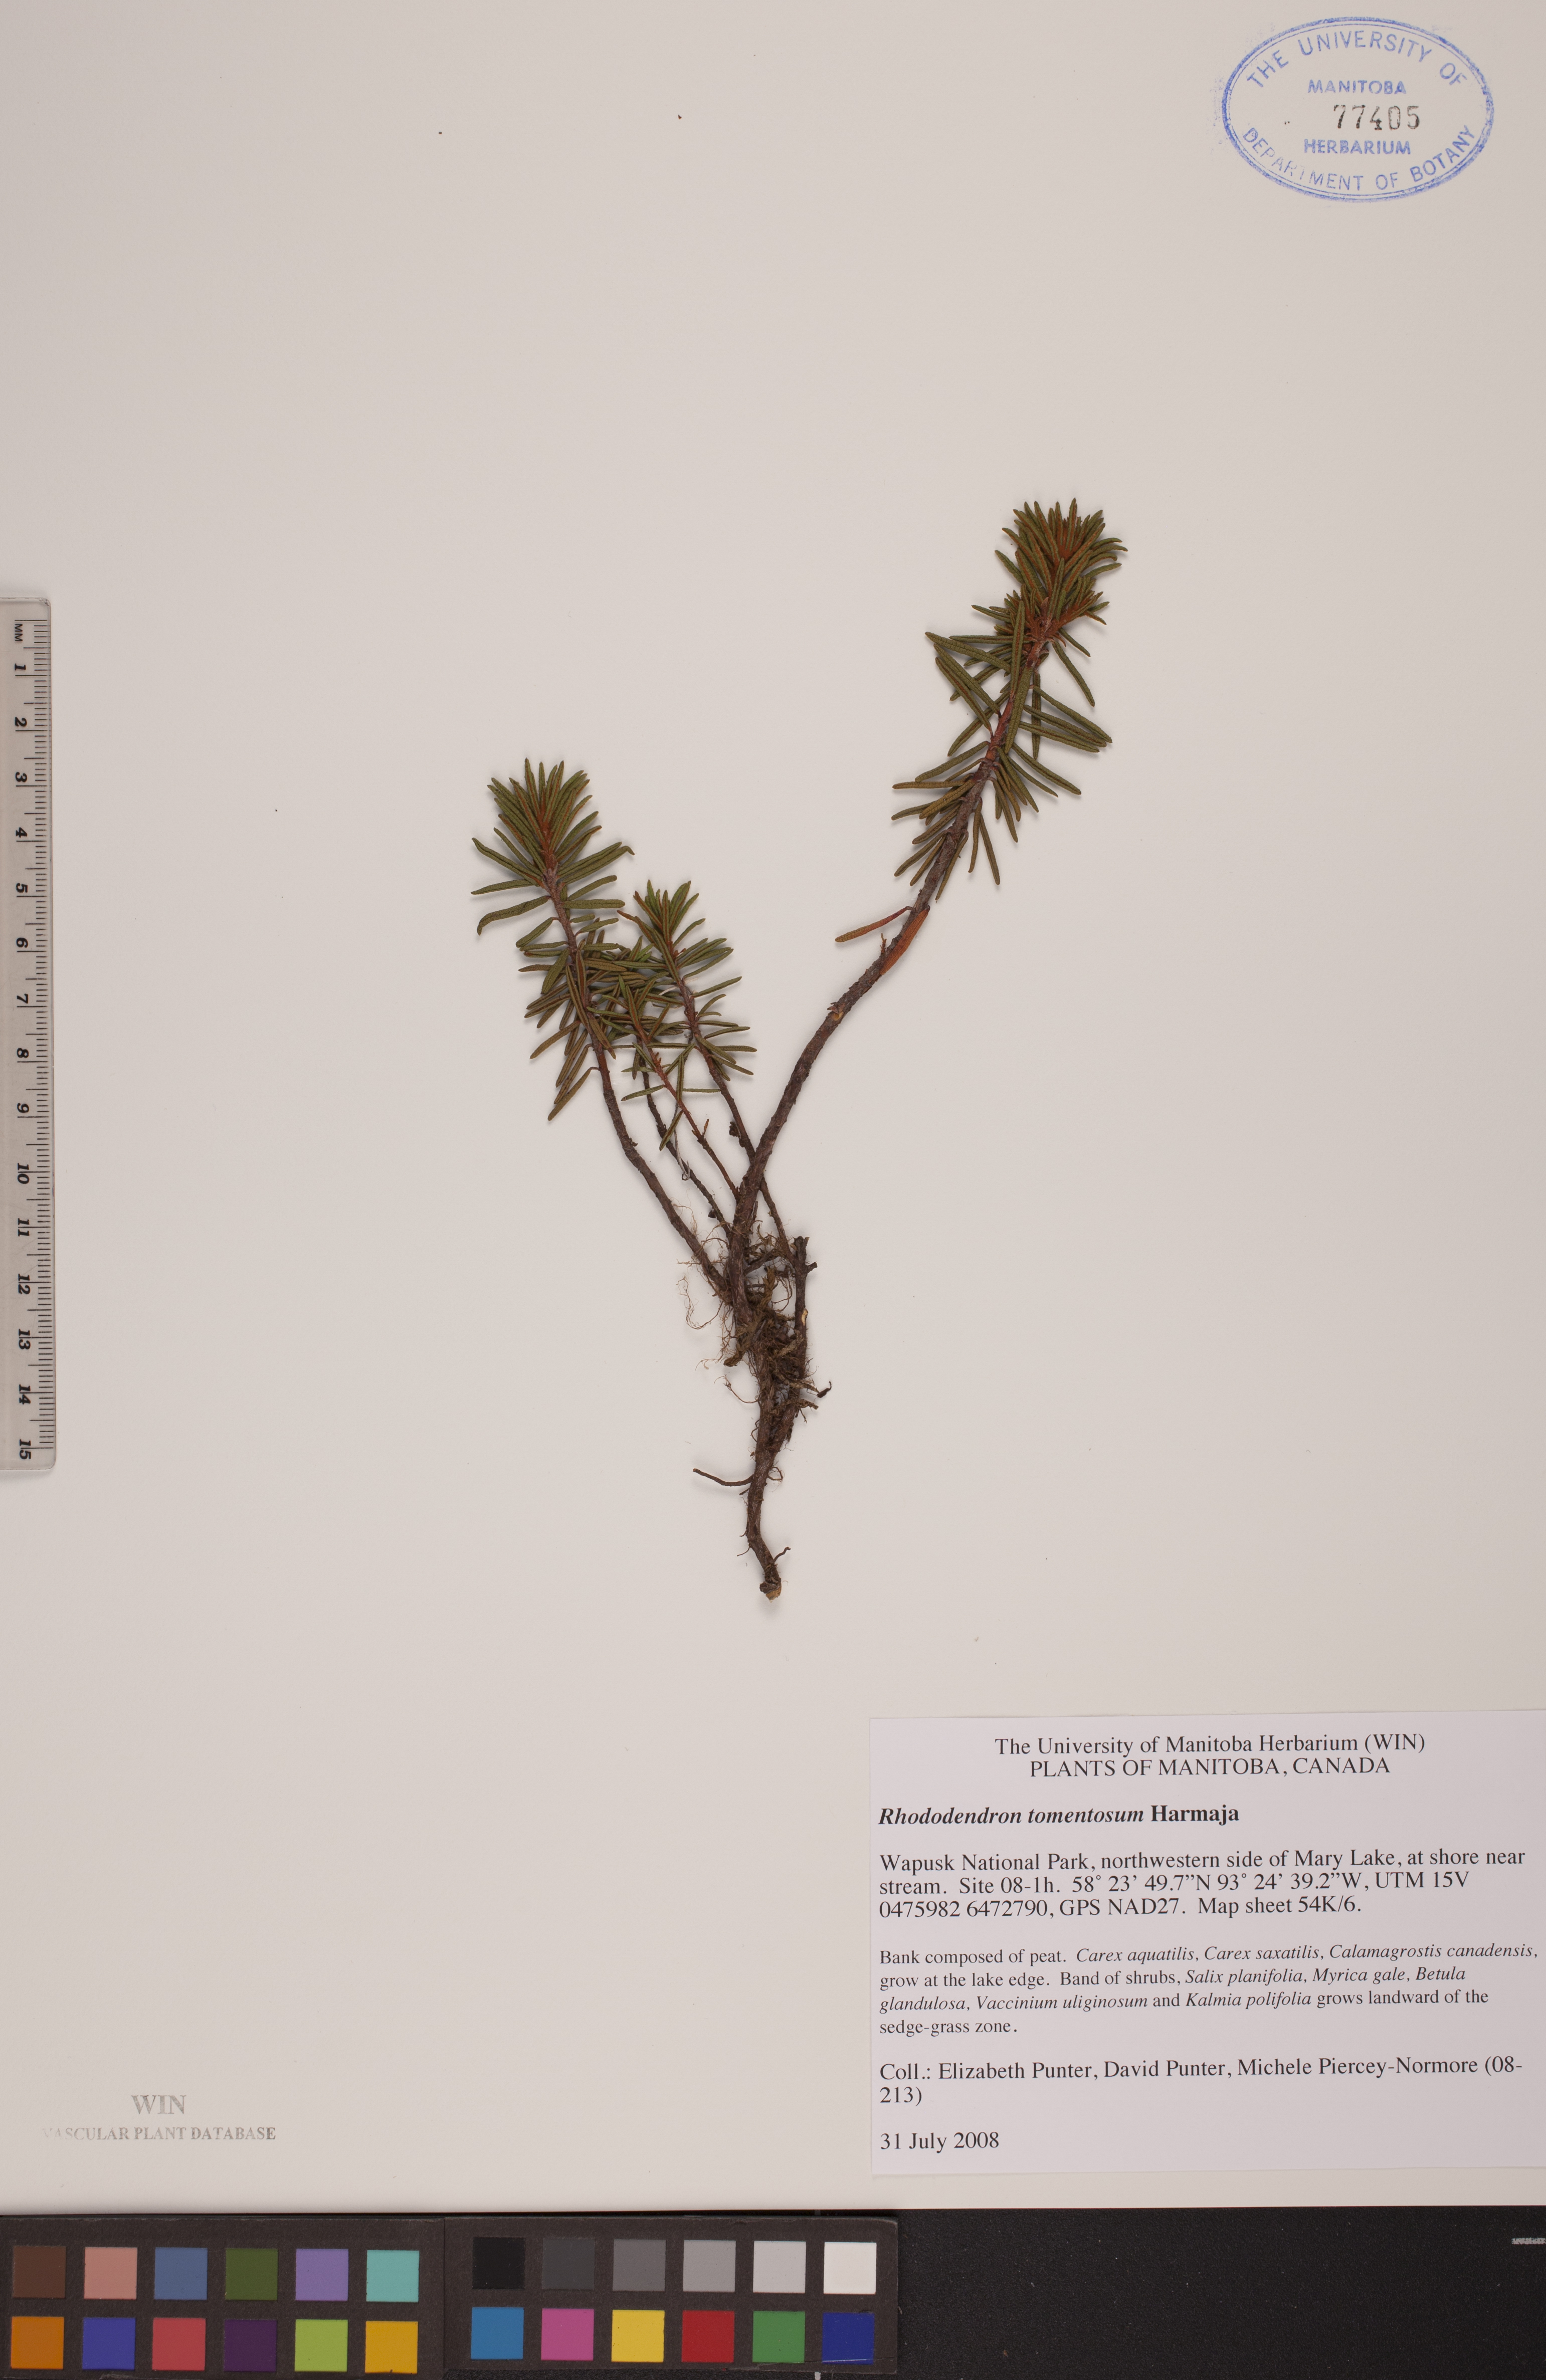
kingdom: Plantae
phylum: Tracheophyta
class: Magnoliopsida
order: Ericales
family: Ericaceae
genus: Rhododendron
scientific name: Rhododendron tomentosum
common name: Marsh labrador tea
